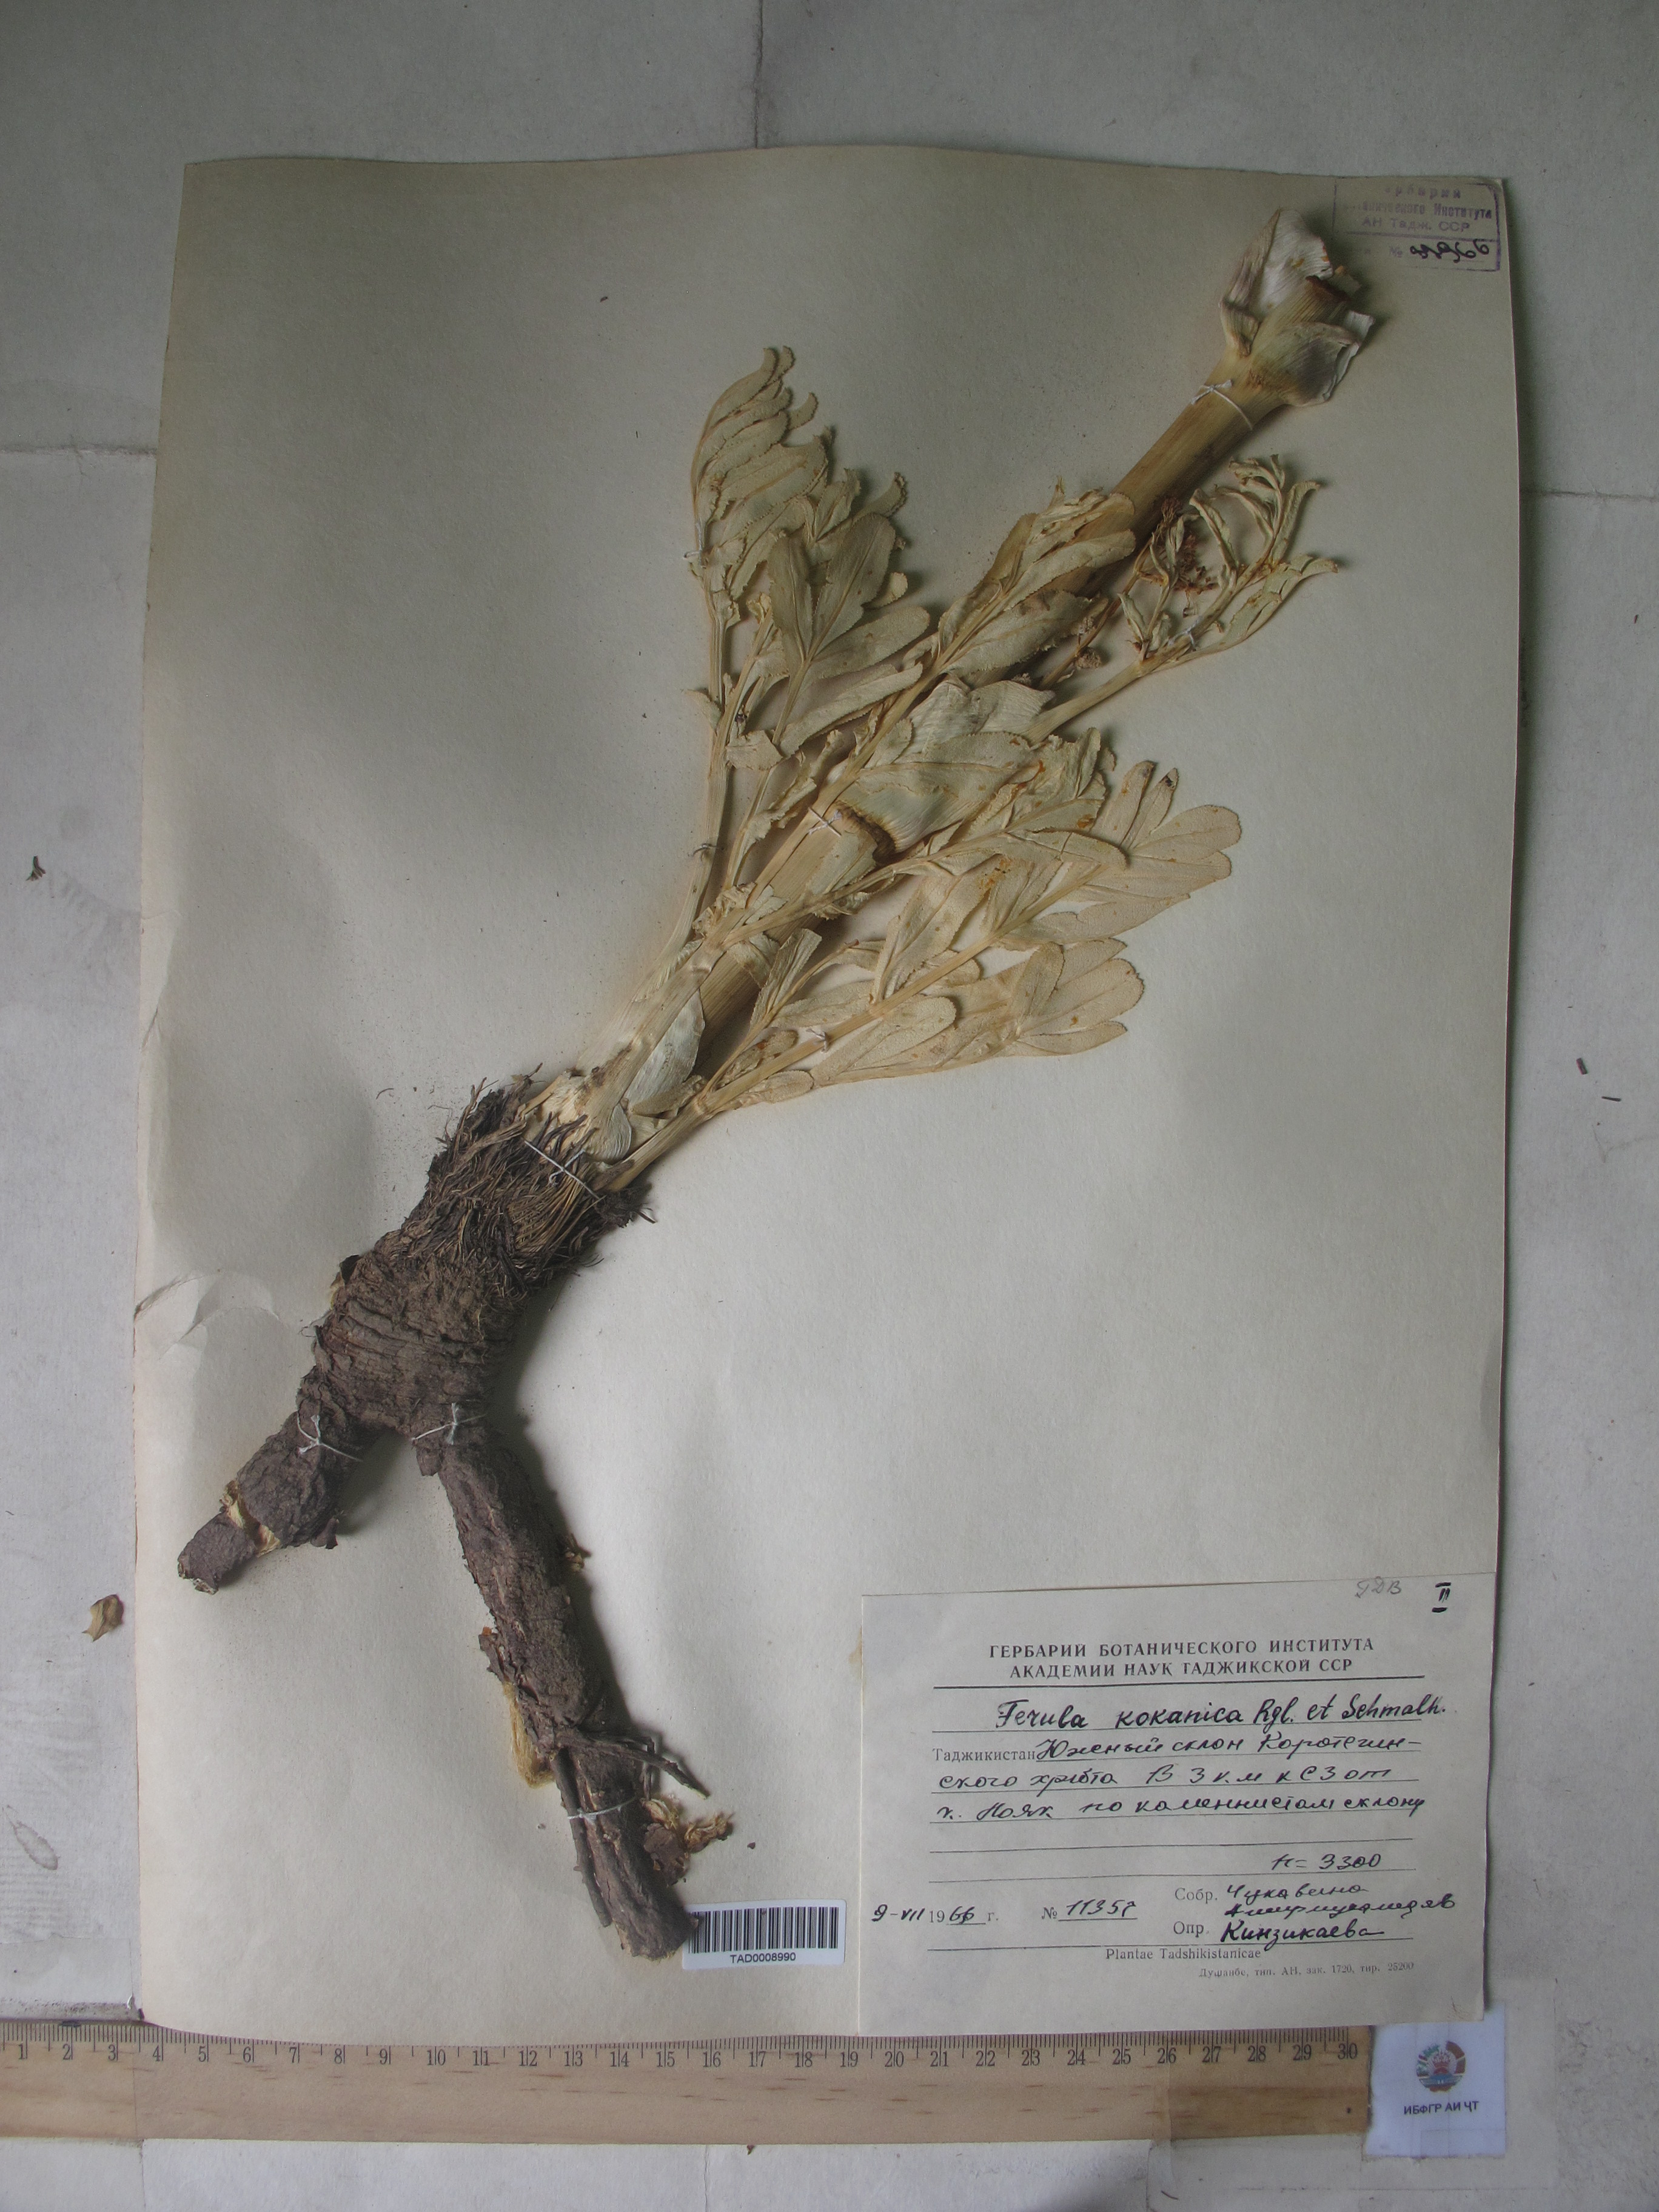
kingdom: Plantae
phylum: Tracheophyta
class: Magnoliopsida
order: Apiales
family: Apiaceae
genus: Ferula
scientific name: Ferula kokanica
